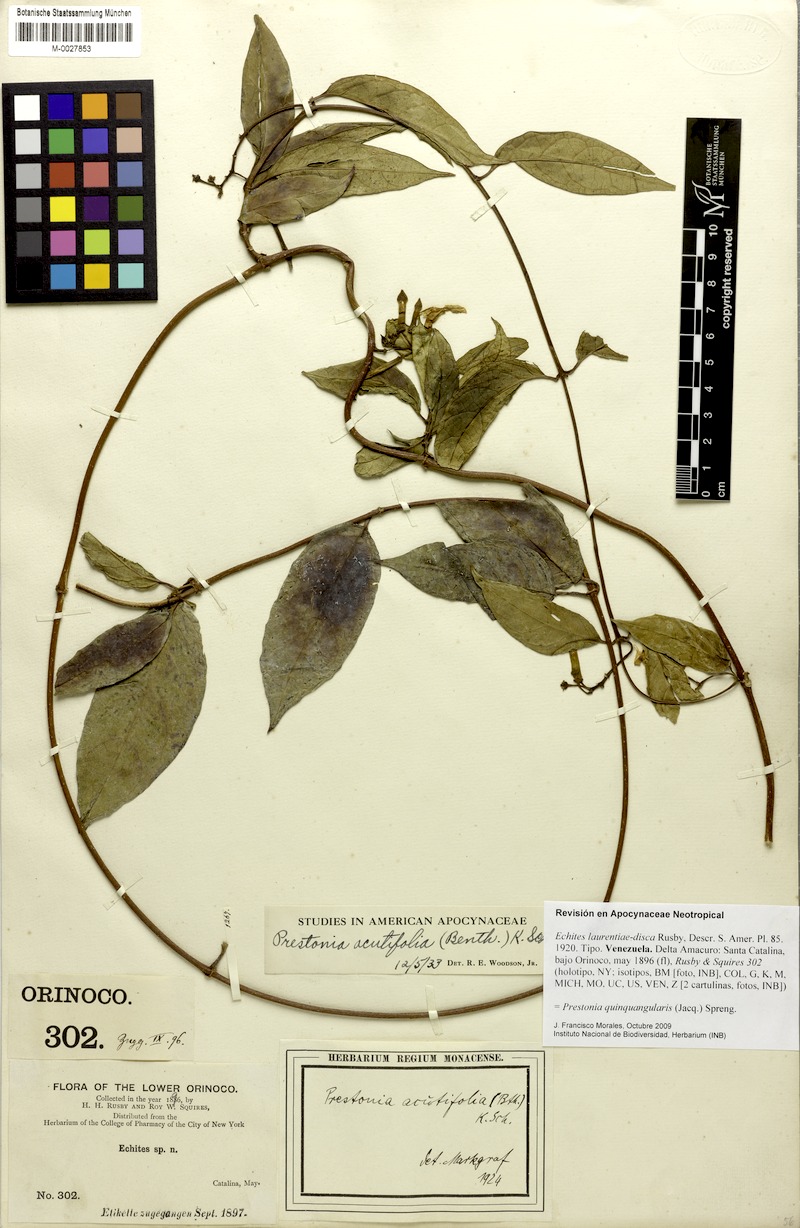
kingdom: Plantae
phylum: Tracheophyta
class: Magnoliopsida
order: Gentianales
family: Apocynaceae
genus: Prestonia
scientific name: Prestonia quinquangularis
